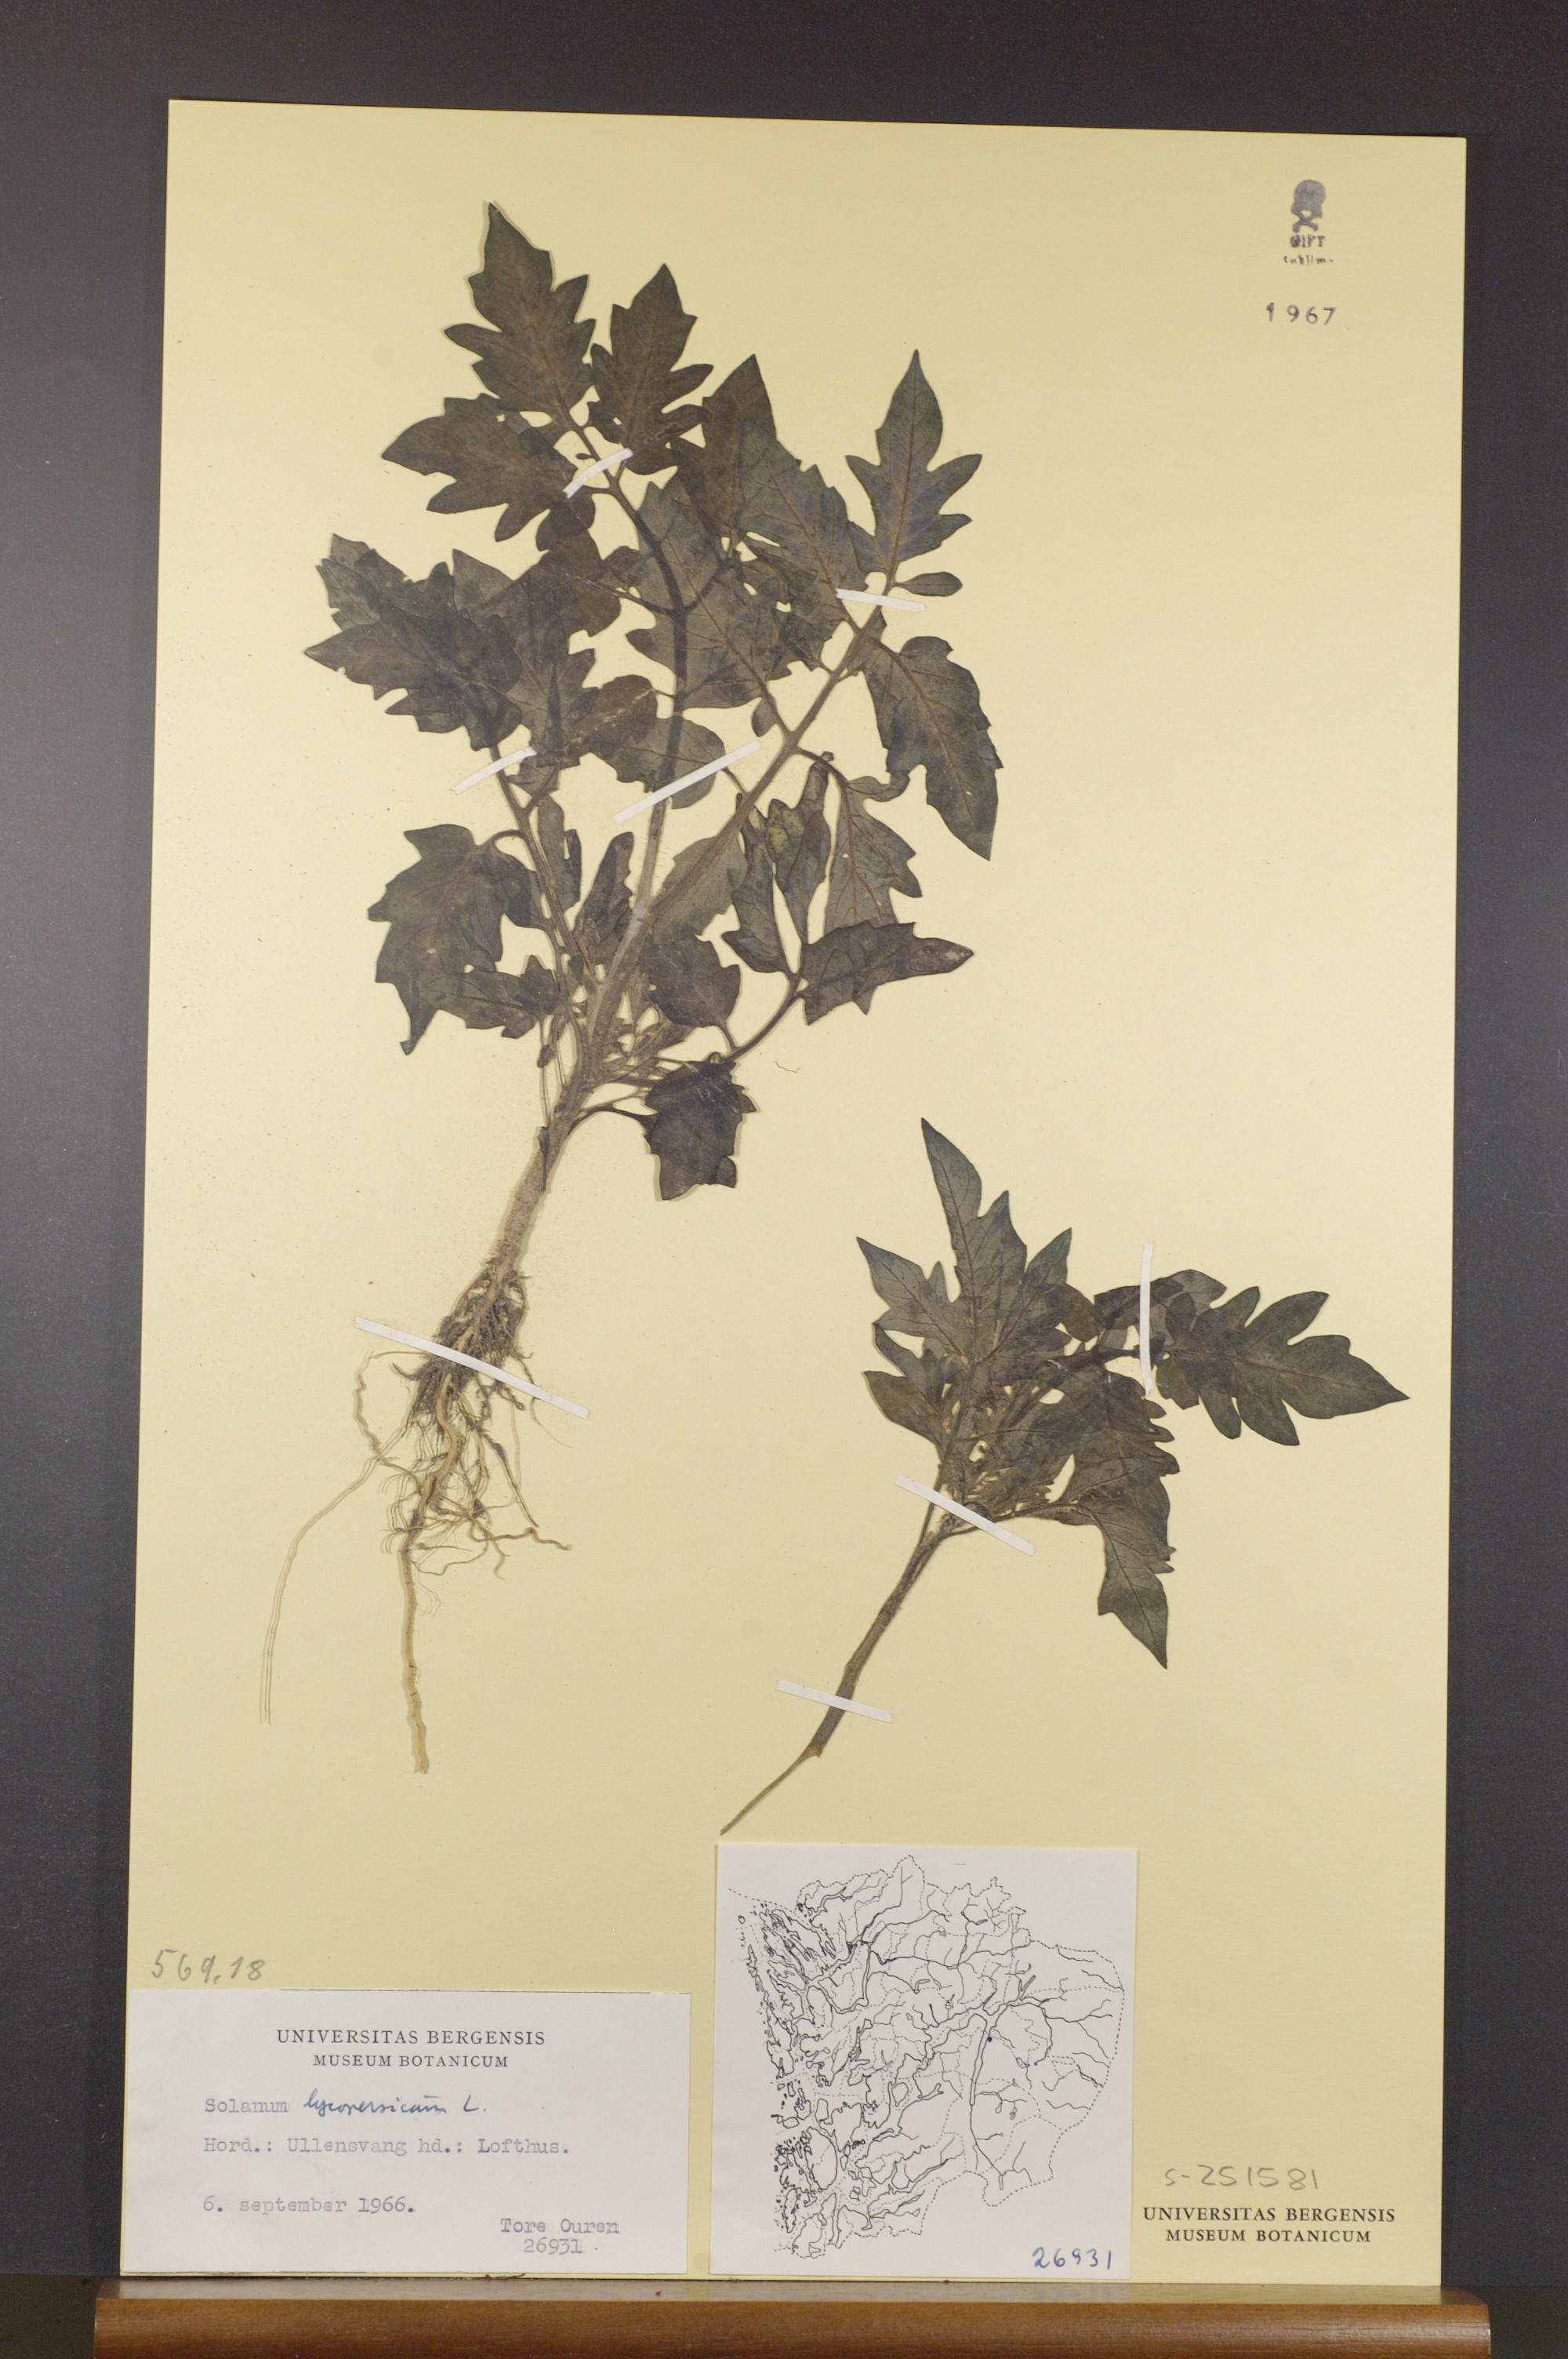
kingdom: Plantae
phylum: Tracheophyta
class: Magnoliopsida
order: Solanales
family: Solanaceae
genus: Solanum
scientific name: Solanum
